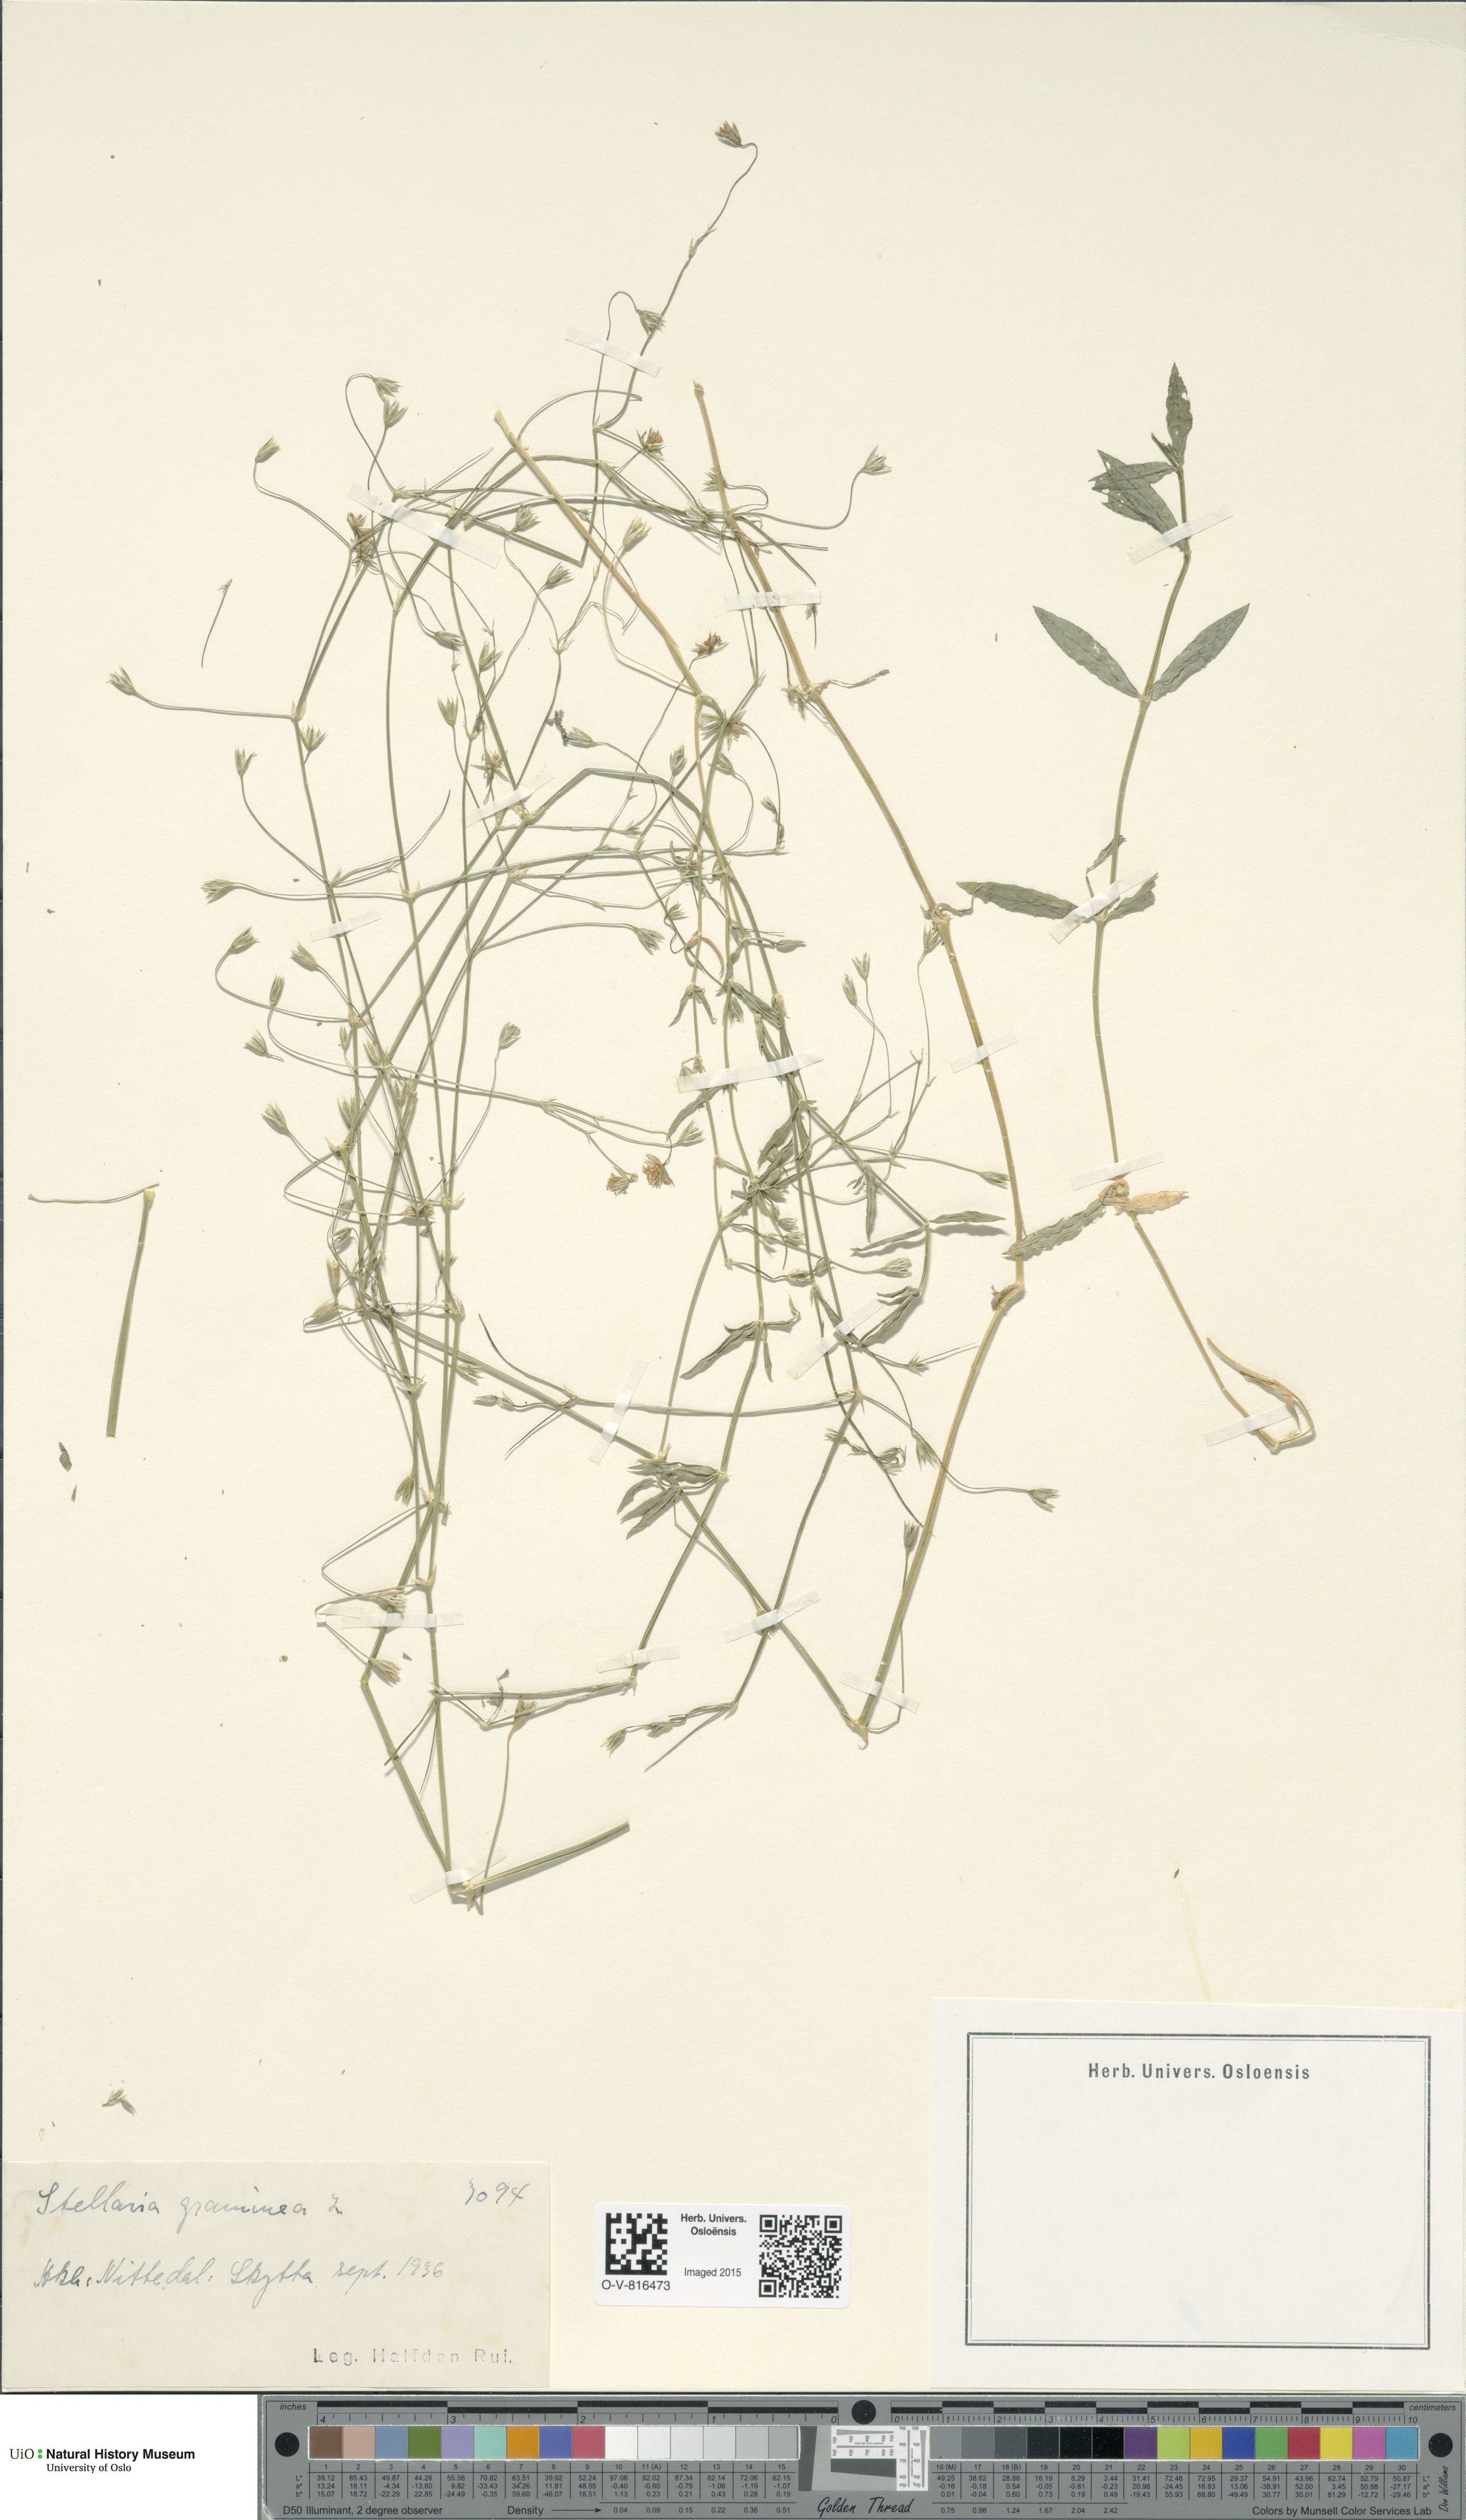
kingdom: Plantae
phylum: Tracheophyta
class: Magnoliopsida
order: Caryophyllales
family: Caryophyllaceae
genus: Stellaria
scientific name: Stellaria graminea
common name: Grass-like starwort
